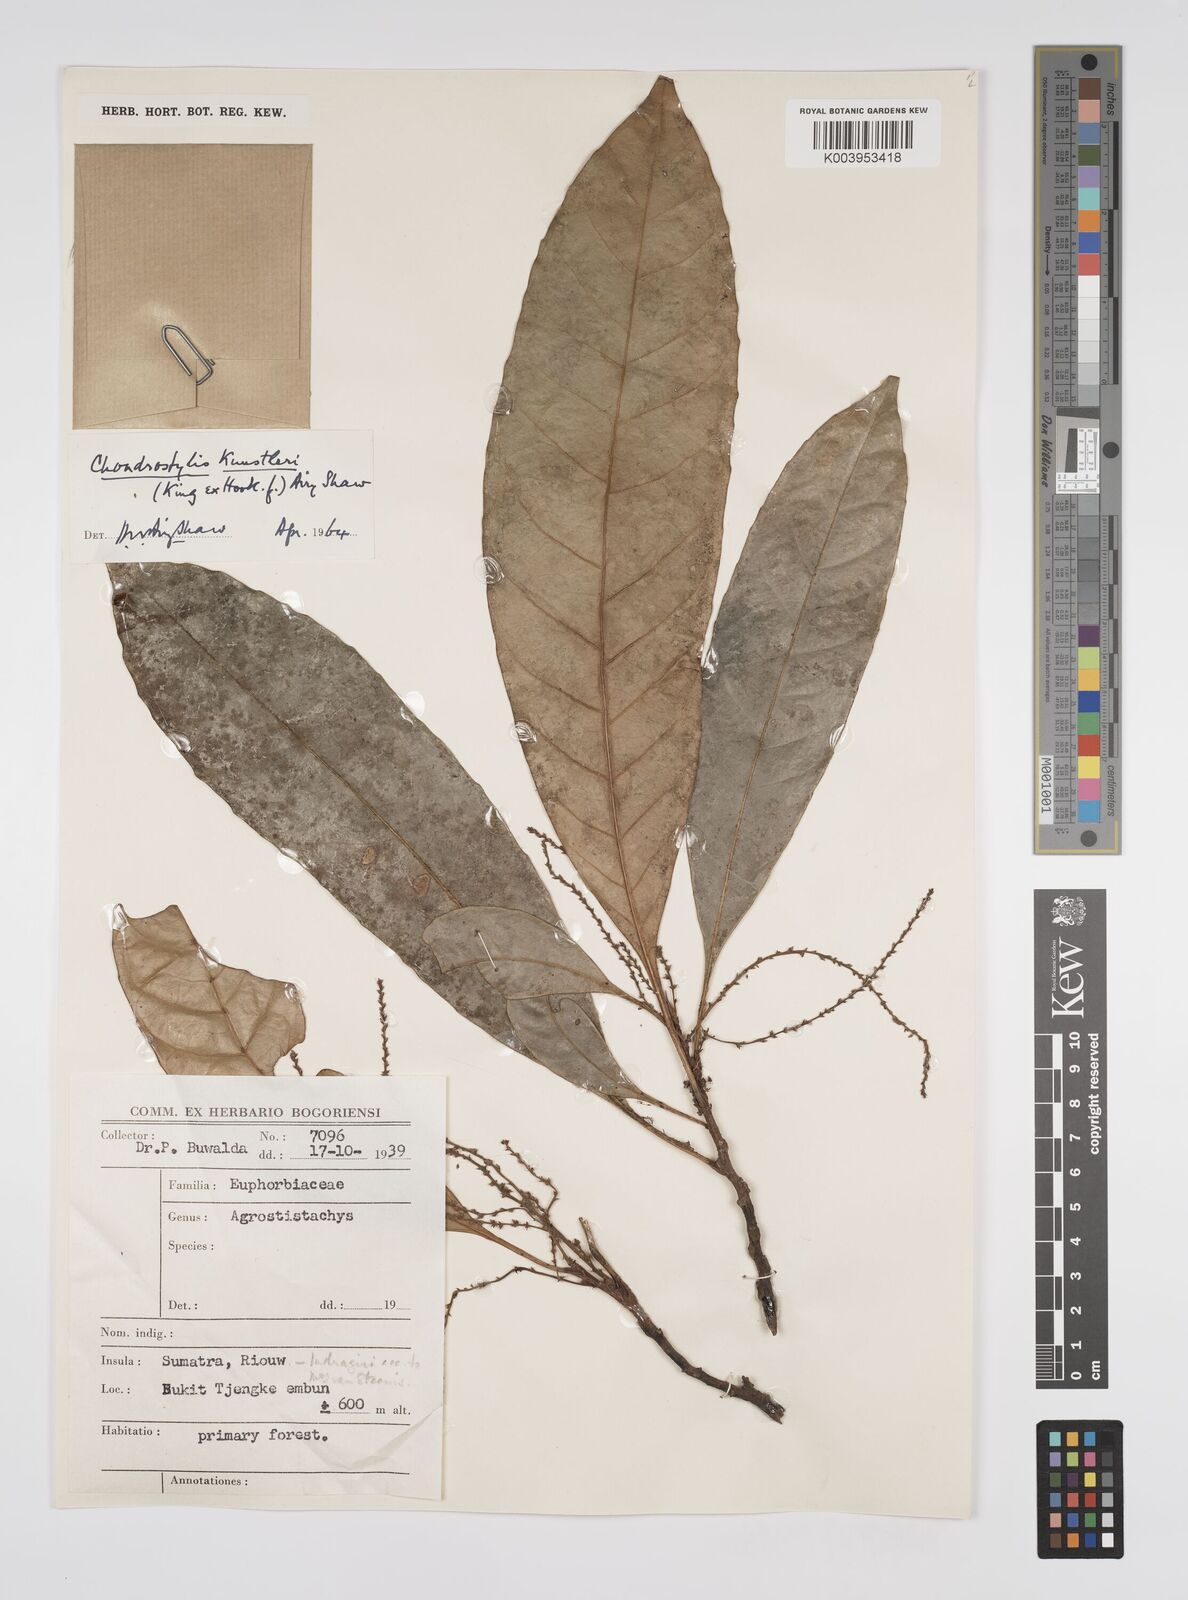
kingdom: Plantae
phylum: Tracheophyta
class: Magnoliopsida
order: Malpighiales
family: Euphorbiaceae
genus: Chondrostylis
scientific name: Chondrostylis kunstleri
